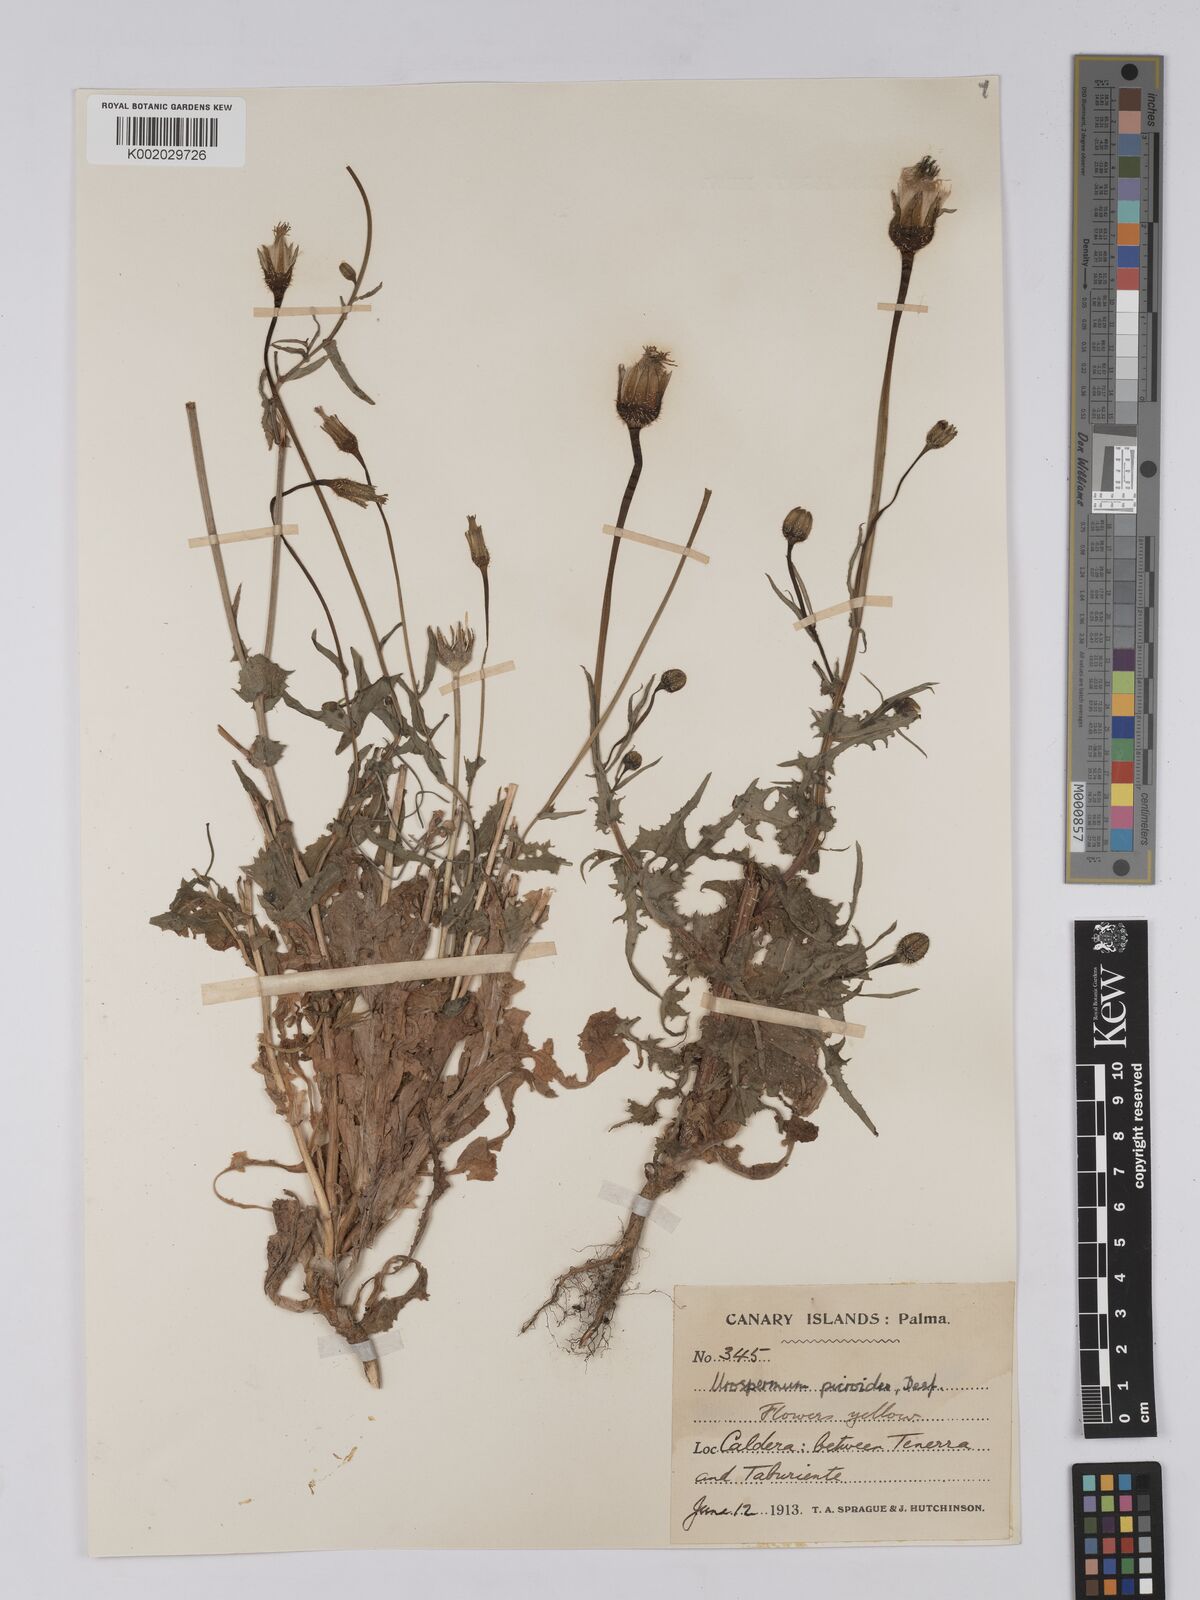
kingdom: Plantae
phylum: Tracheophyta
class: Magnoliopsida
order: Asterales
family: Asteraceae
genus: Urospermum
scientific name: Urospermum picroides
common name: False hawkbit
